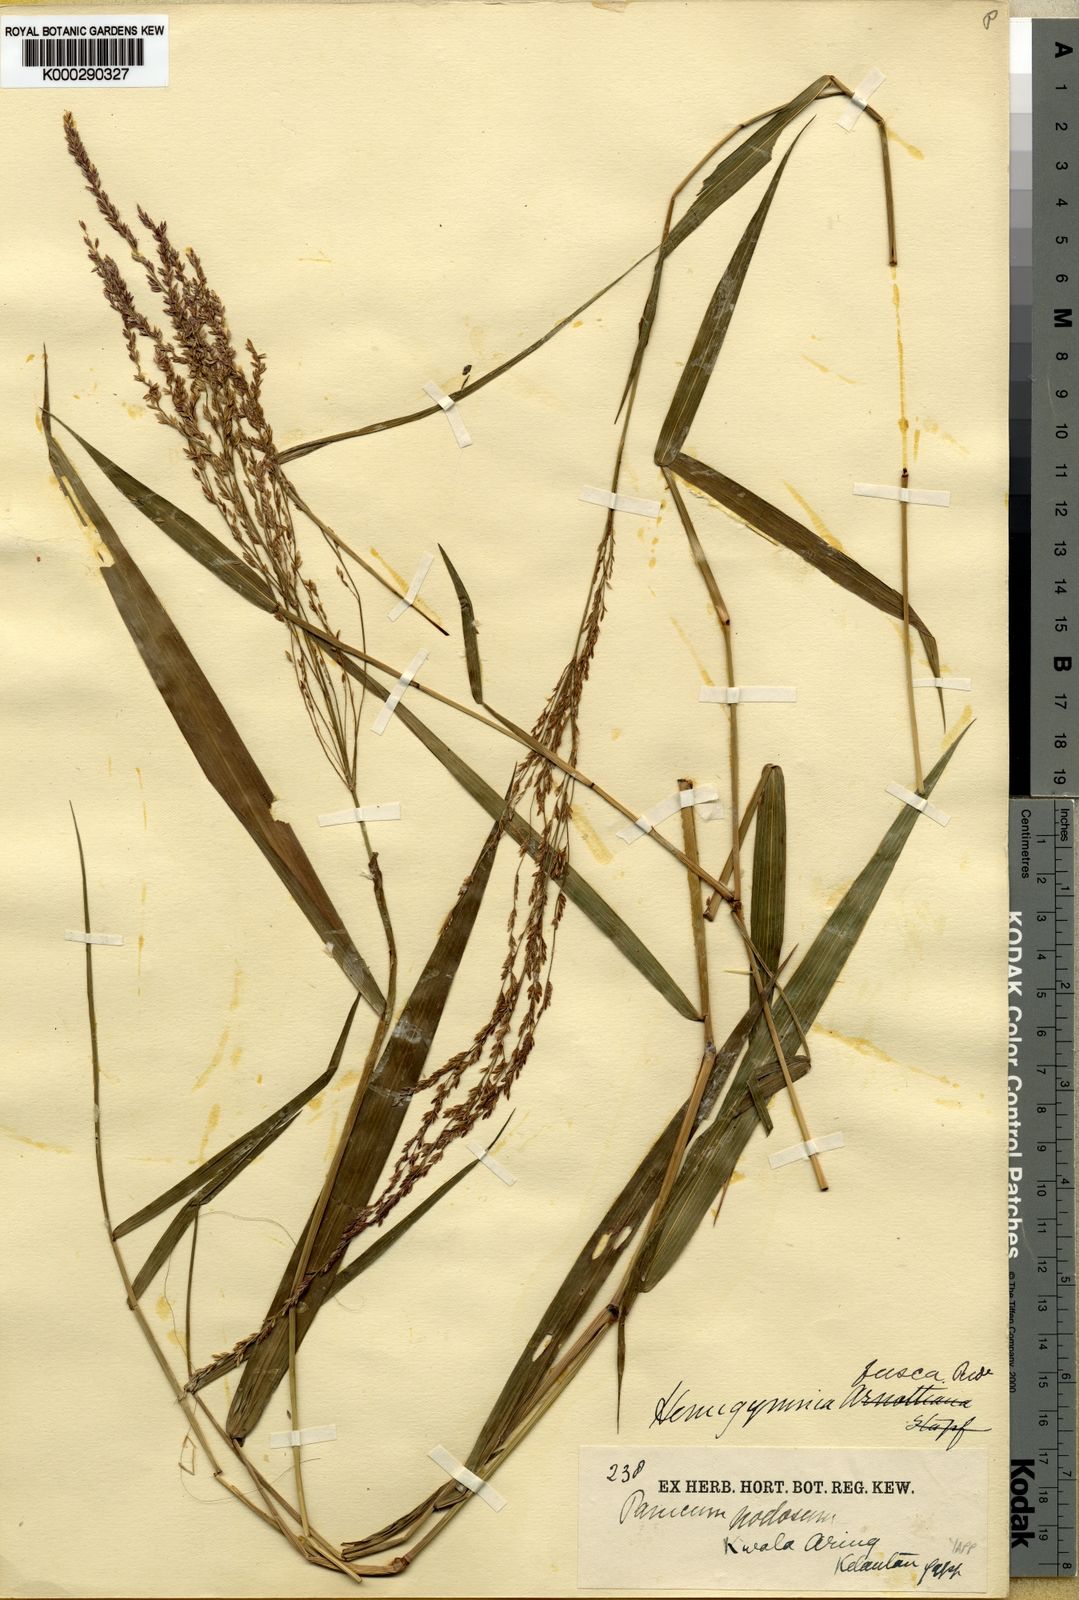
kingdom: Plantae
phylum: Tracheophyta
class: Liliopsida
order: Poales
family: Poaceae
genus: Ottochloa
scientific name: Ottochloa nodosa
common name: Slender-panic grass
